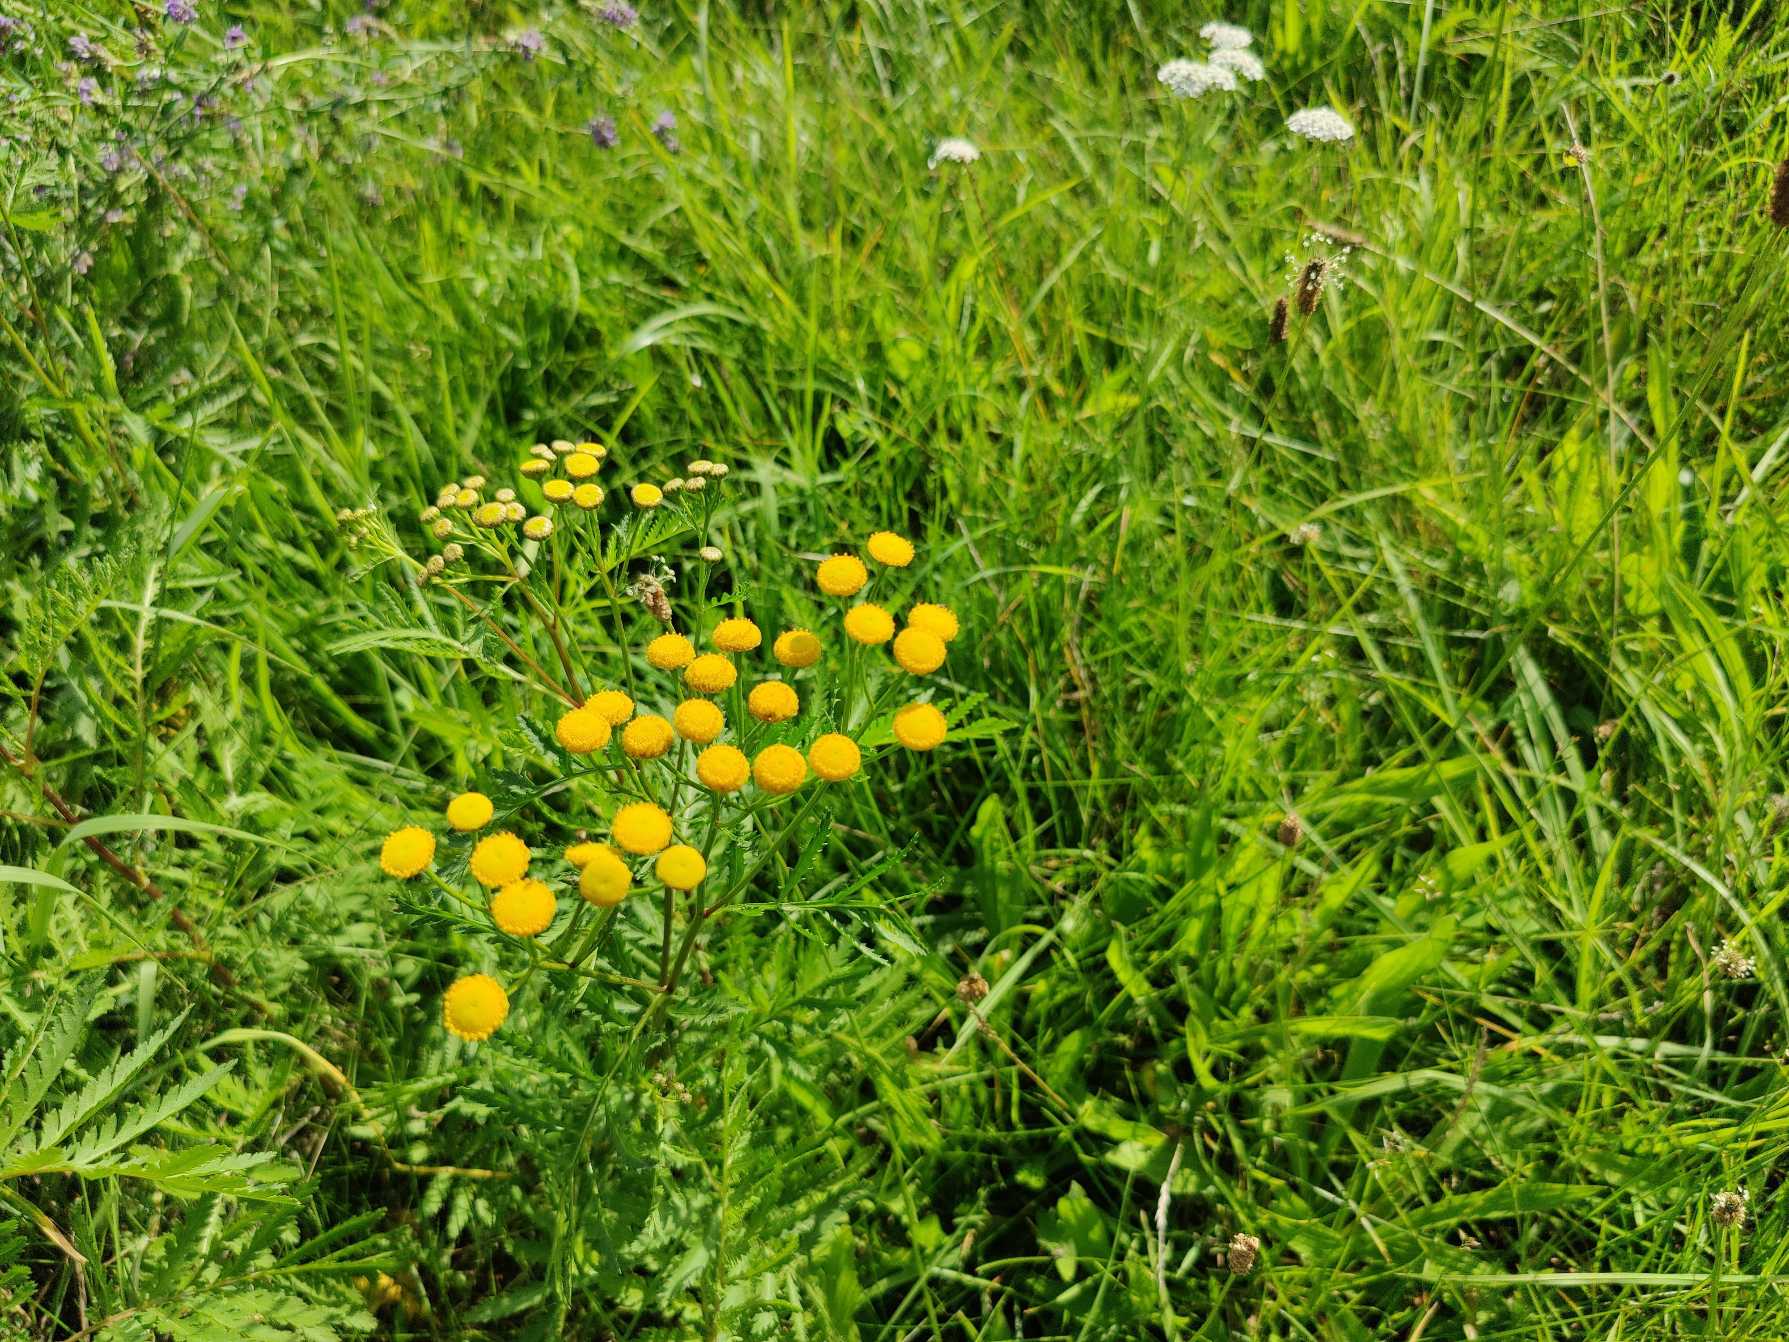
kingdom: Plantae
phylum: Tracheophyta
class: Magnoliopsida
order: Asterales
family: Asteraceae
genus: Tanacetum
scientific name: Tanacetum vulgare
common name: Rejnfan
